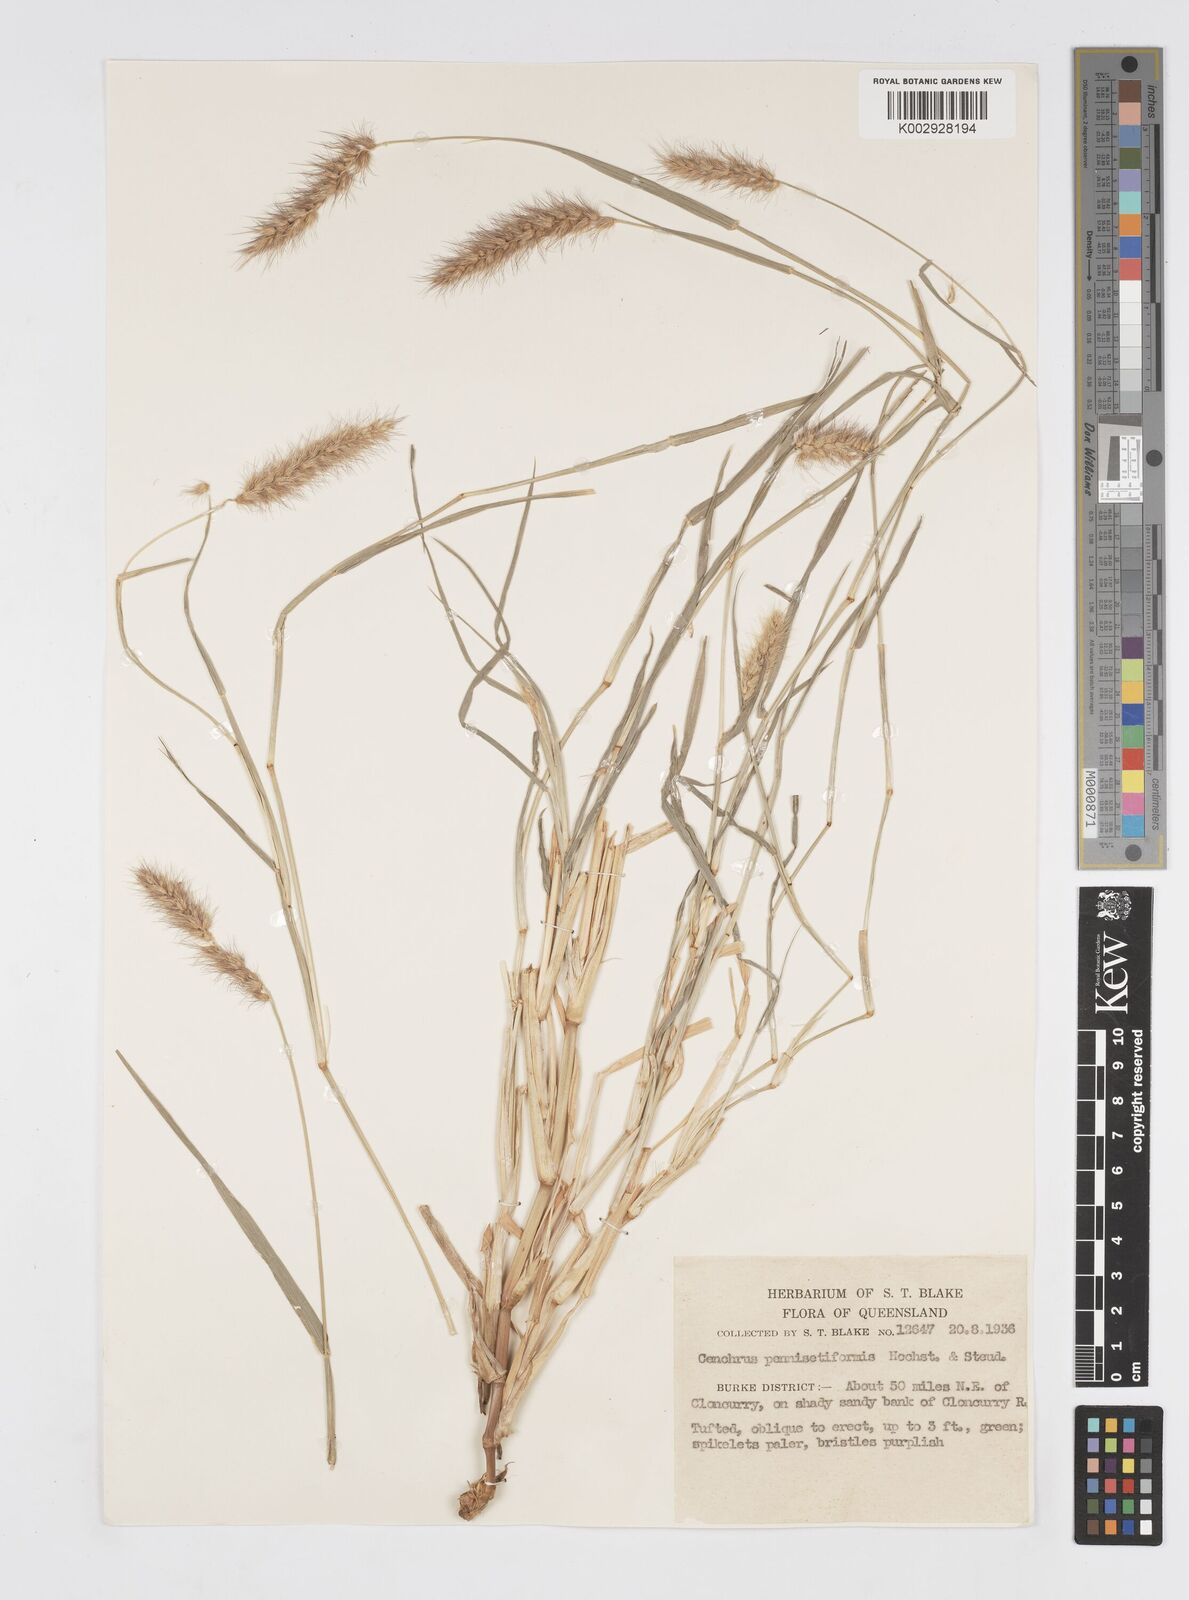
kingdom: Plantae
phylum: Tracheophyta
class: Liliopsida
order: Poales
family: Poaceae
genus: Cenchrus
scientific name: Cenchrus pennisetiformis
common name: Cloncurry
